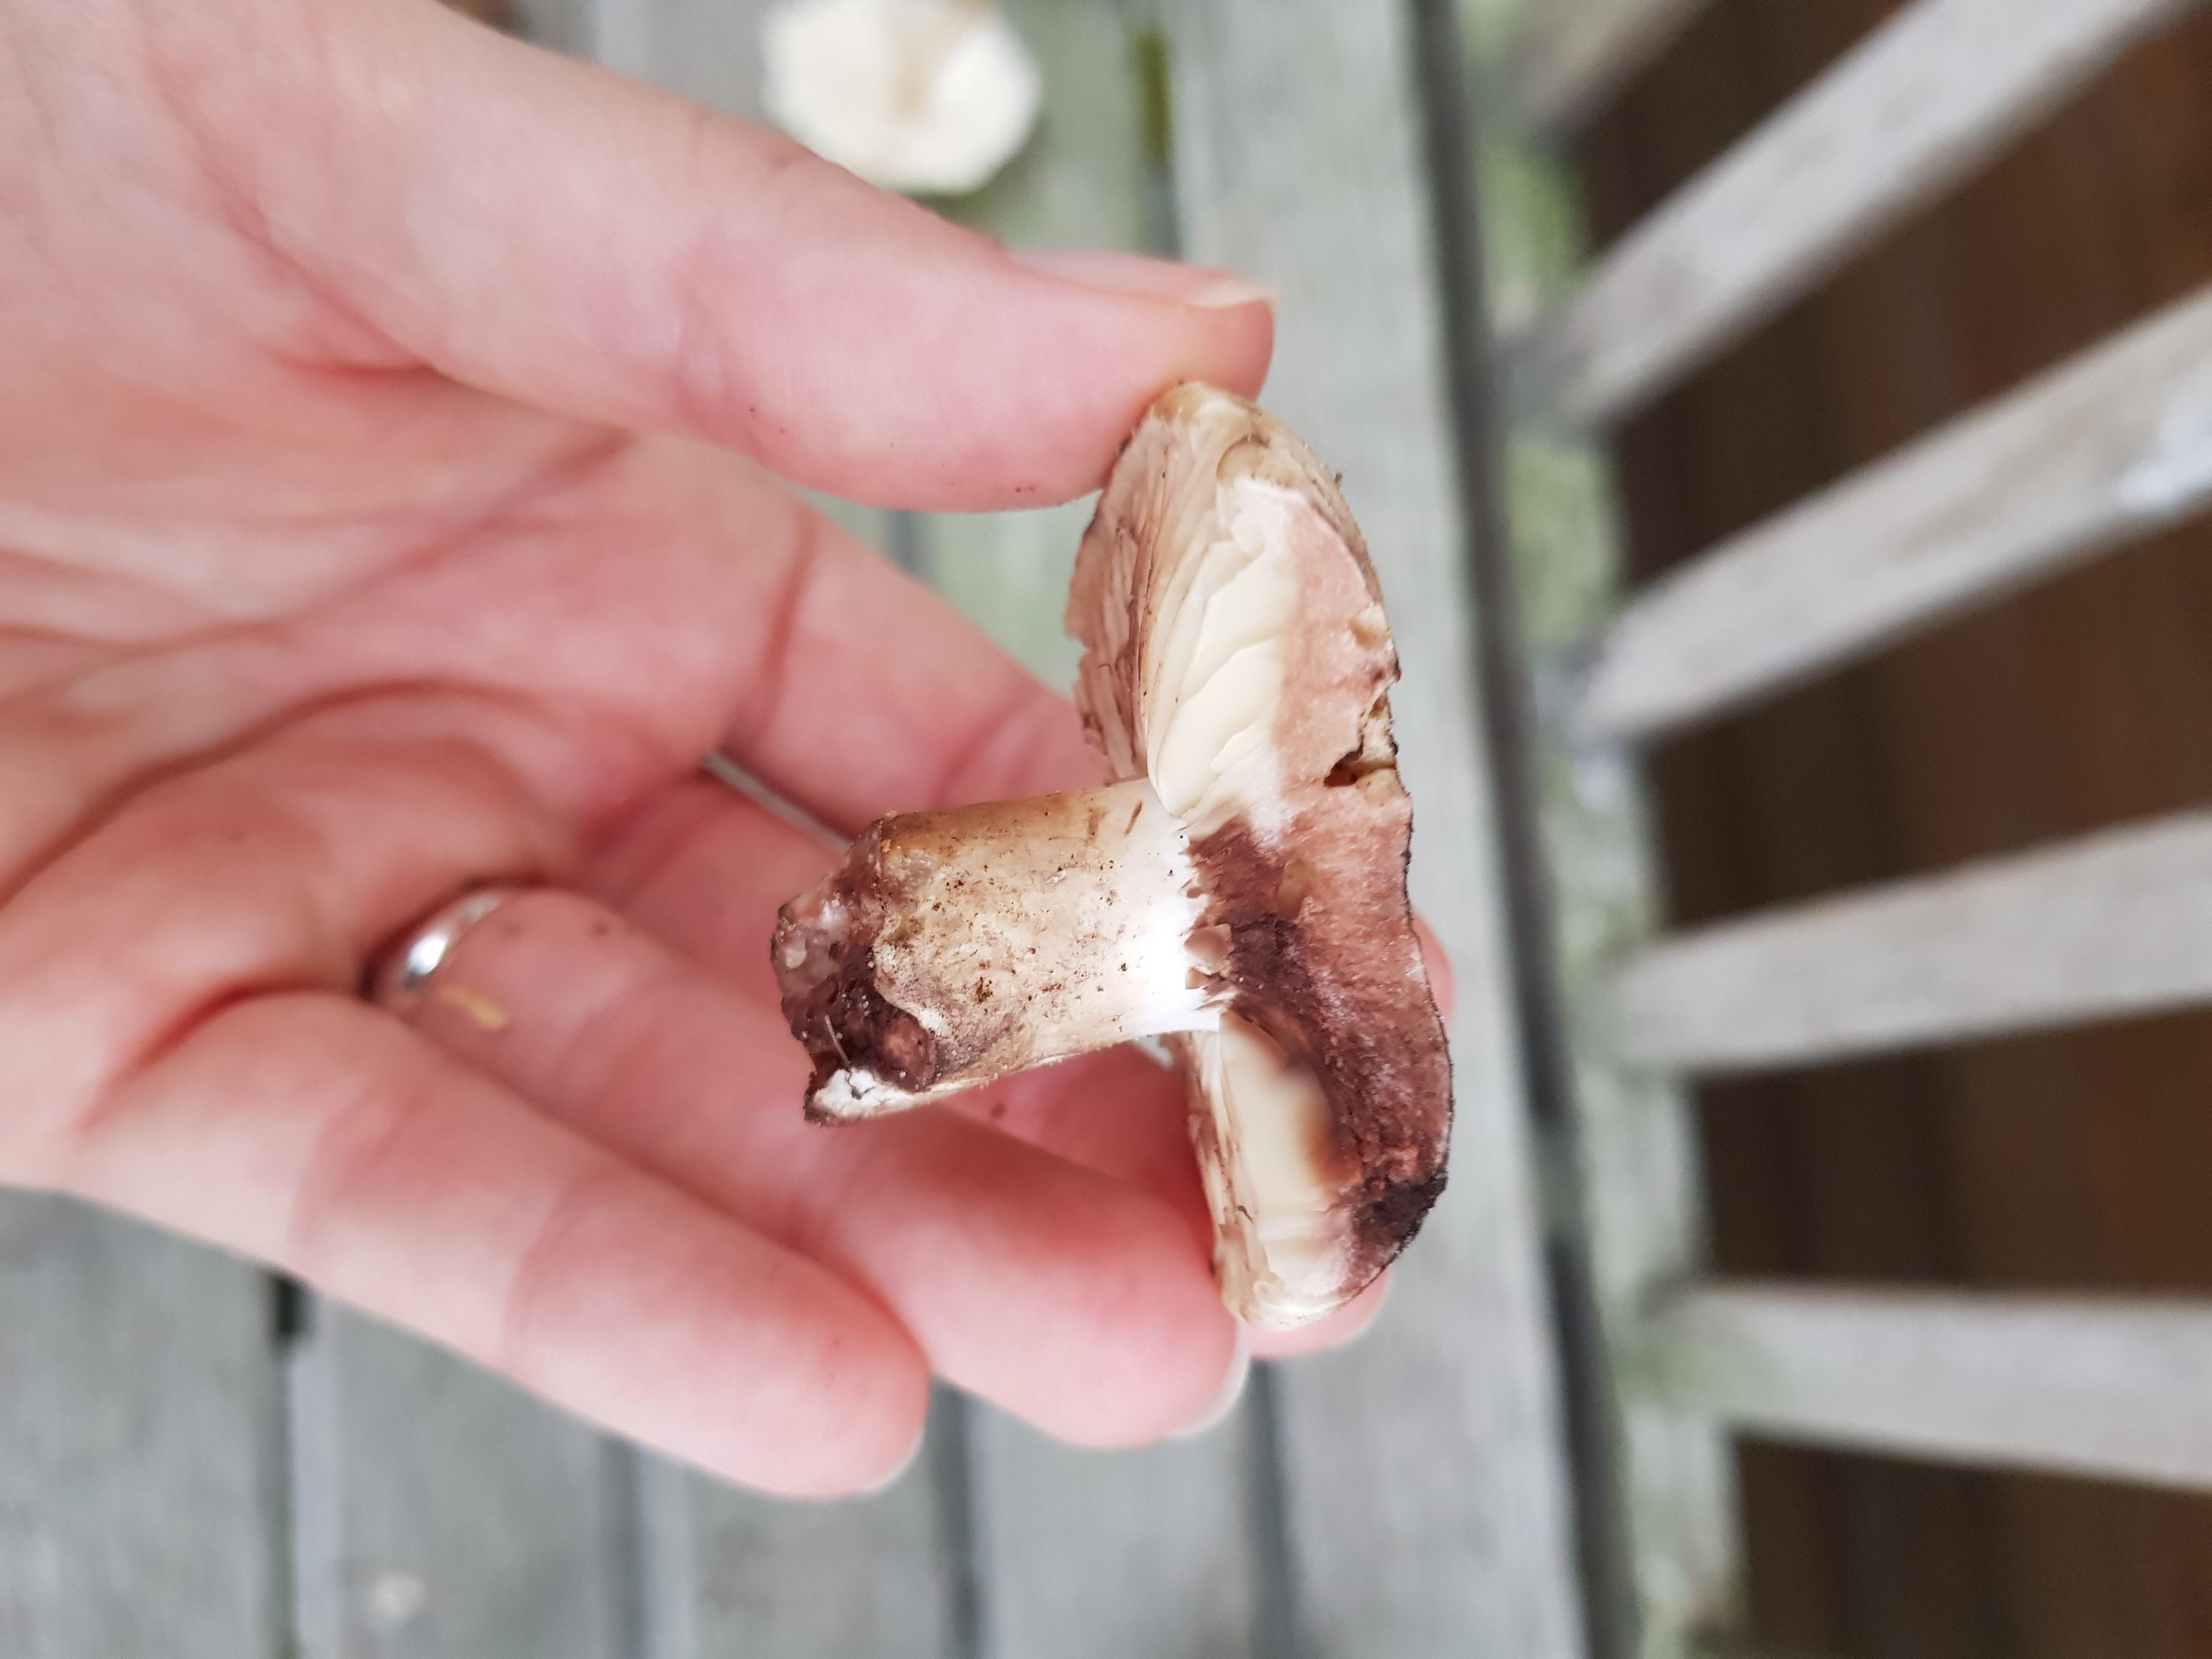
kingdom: Fungi
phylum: Basidiomycota
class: Agaricomycetes
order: Russulales
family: Russulaceae
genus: Russula
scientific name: Russula adusta
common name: sværtende skørhat
